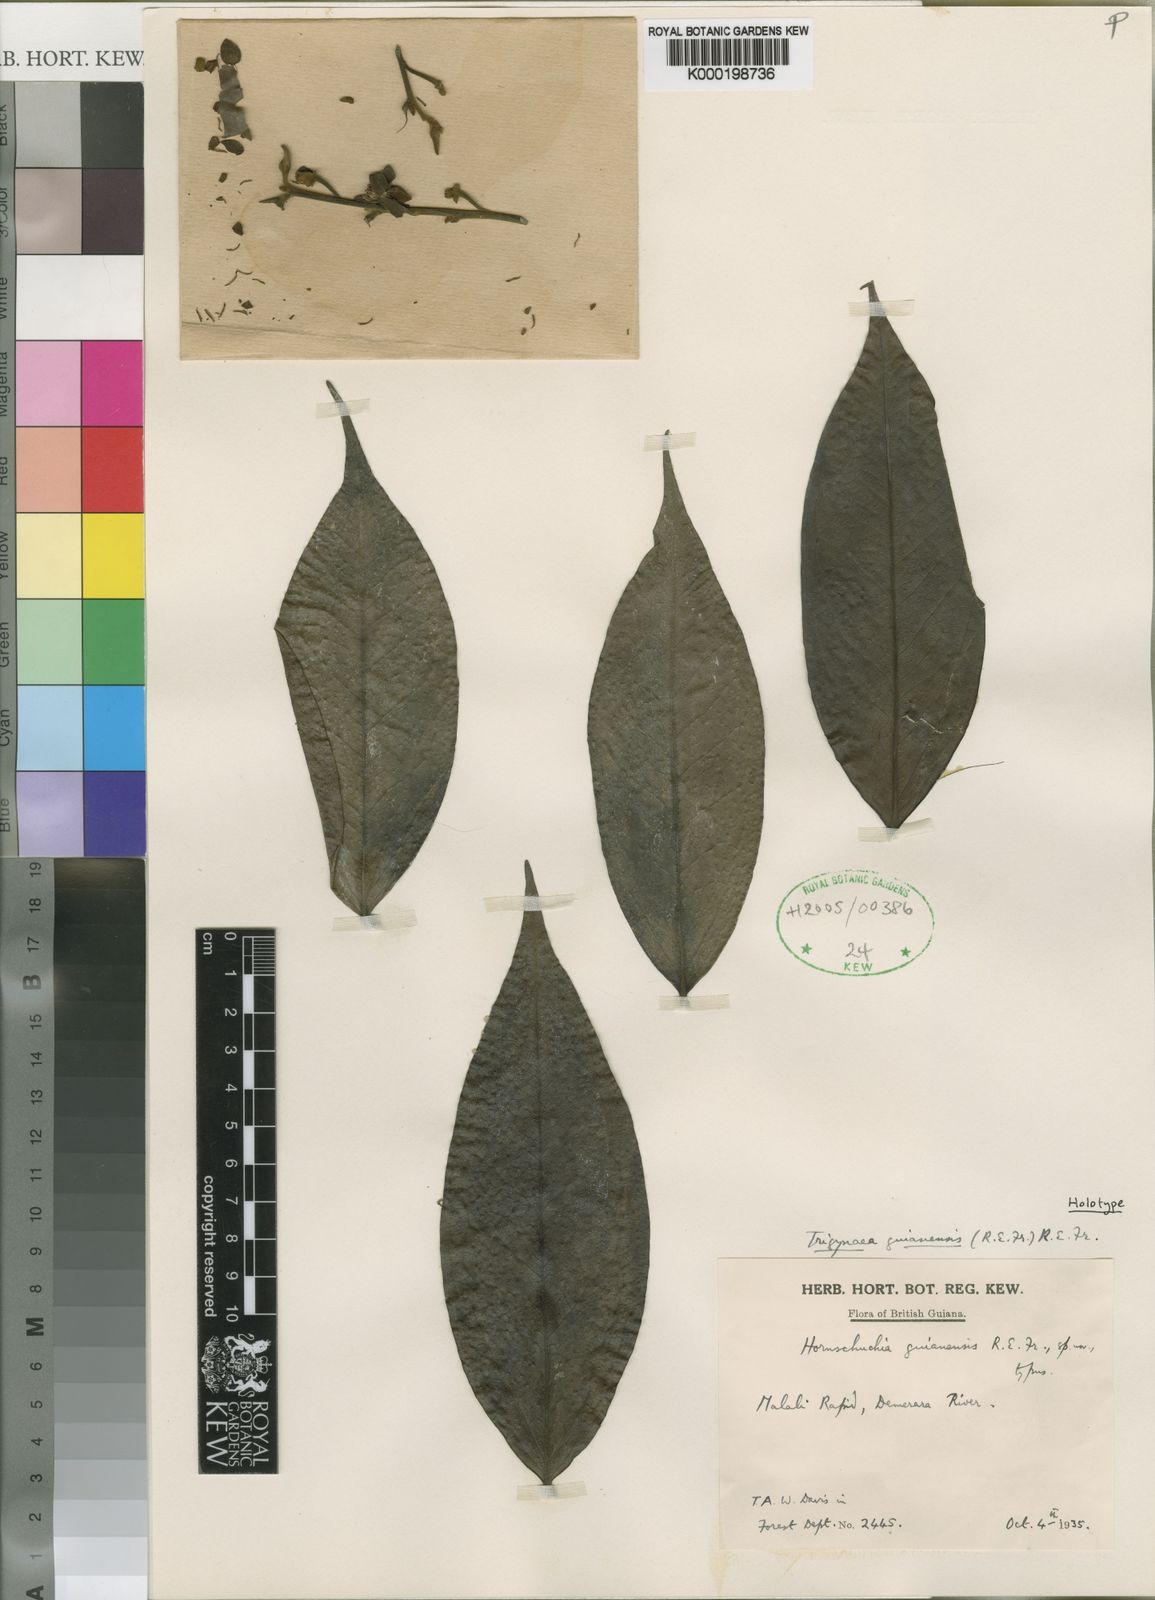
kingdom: Plantae
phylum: Tracheophyta
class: Magnoliopsida
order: Magnoliales
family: Annonaceae
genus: Trigynaea
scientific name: Trigynaea
